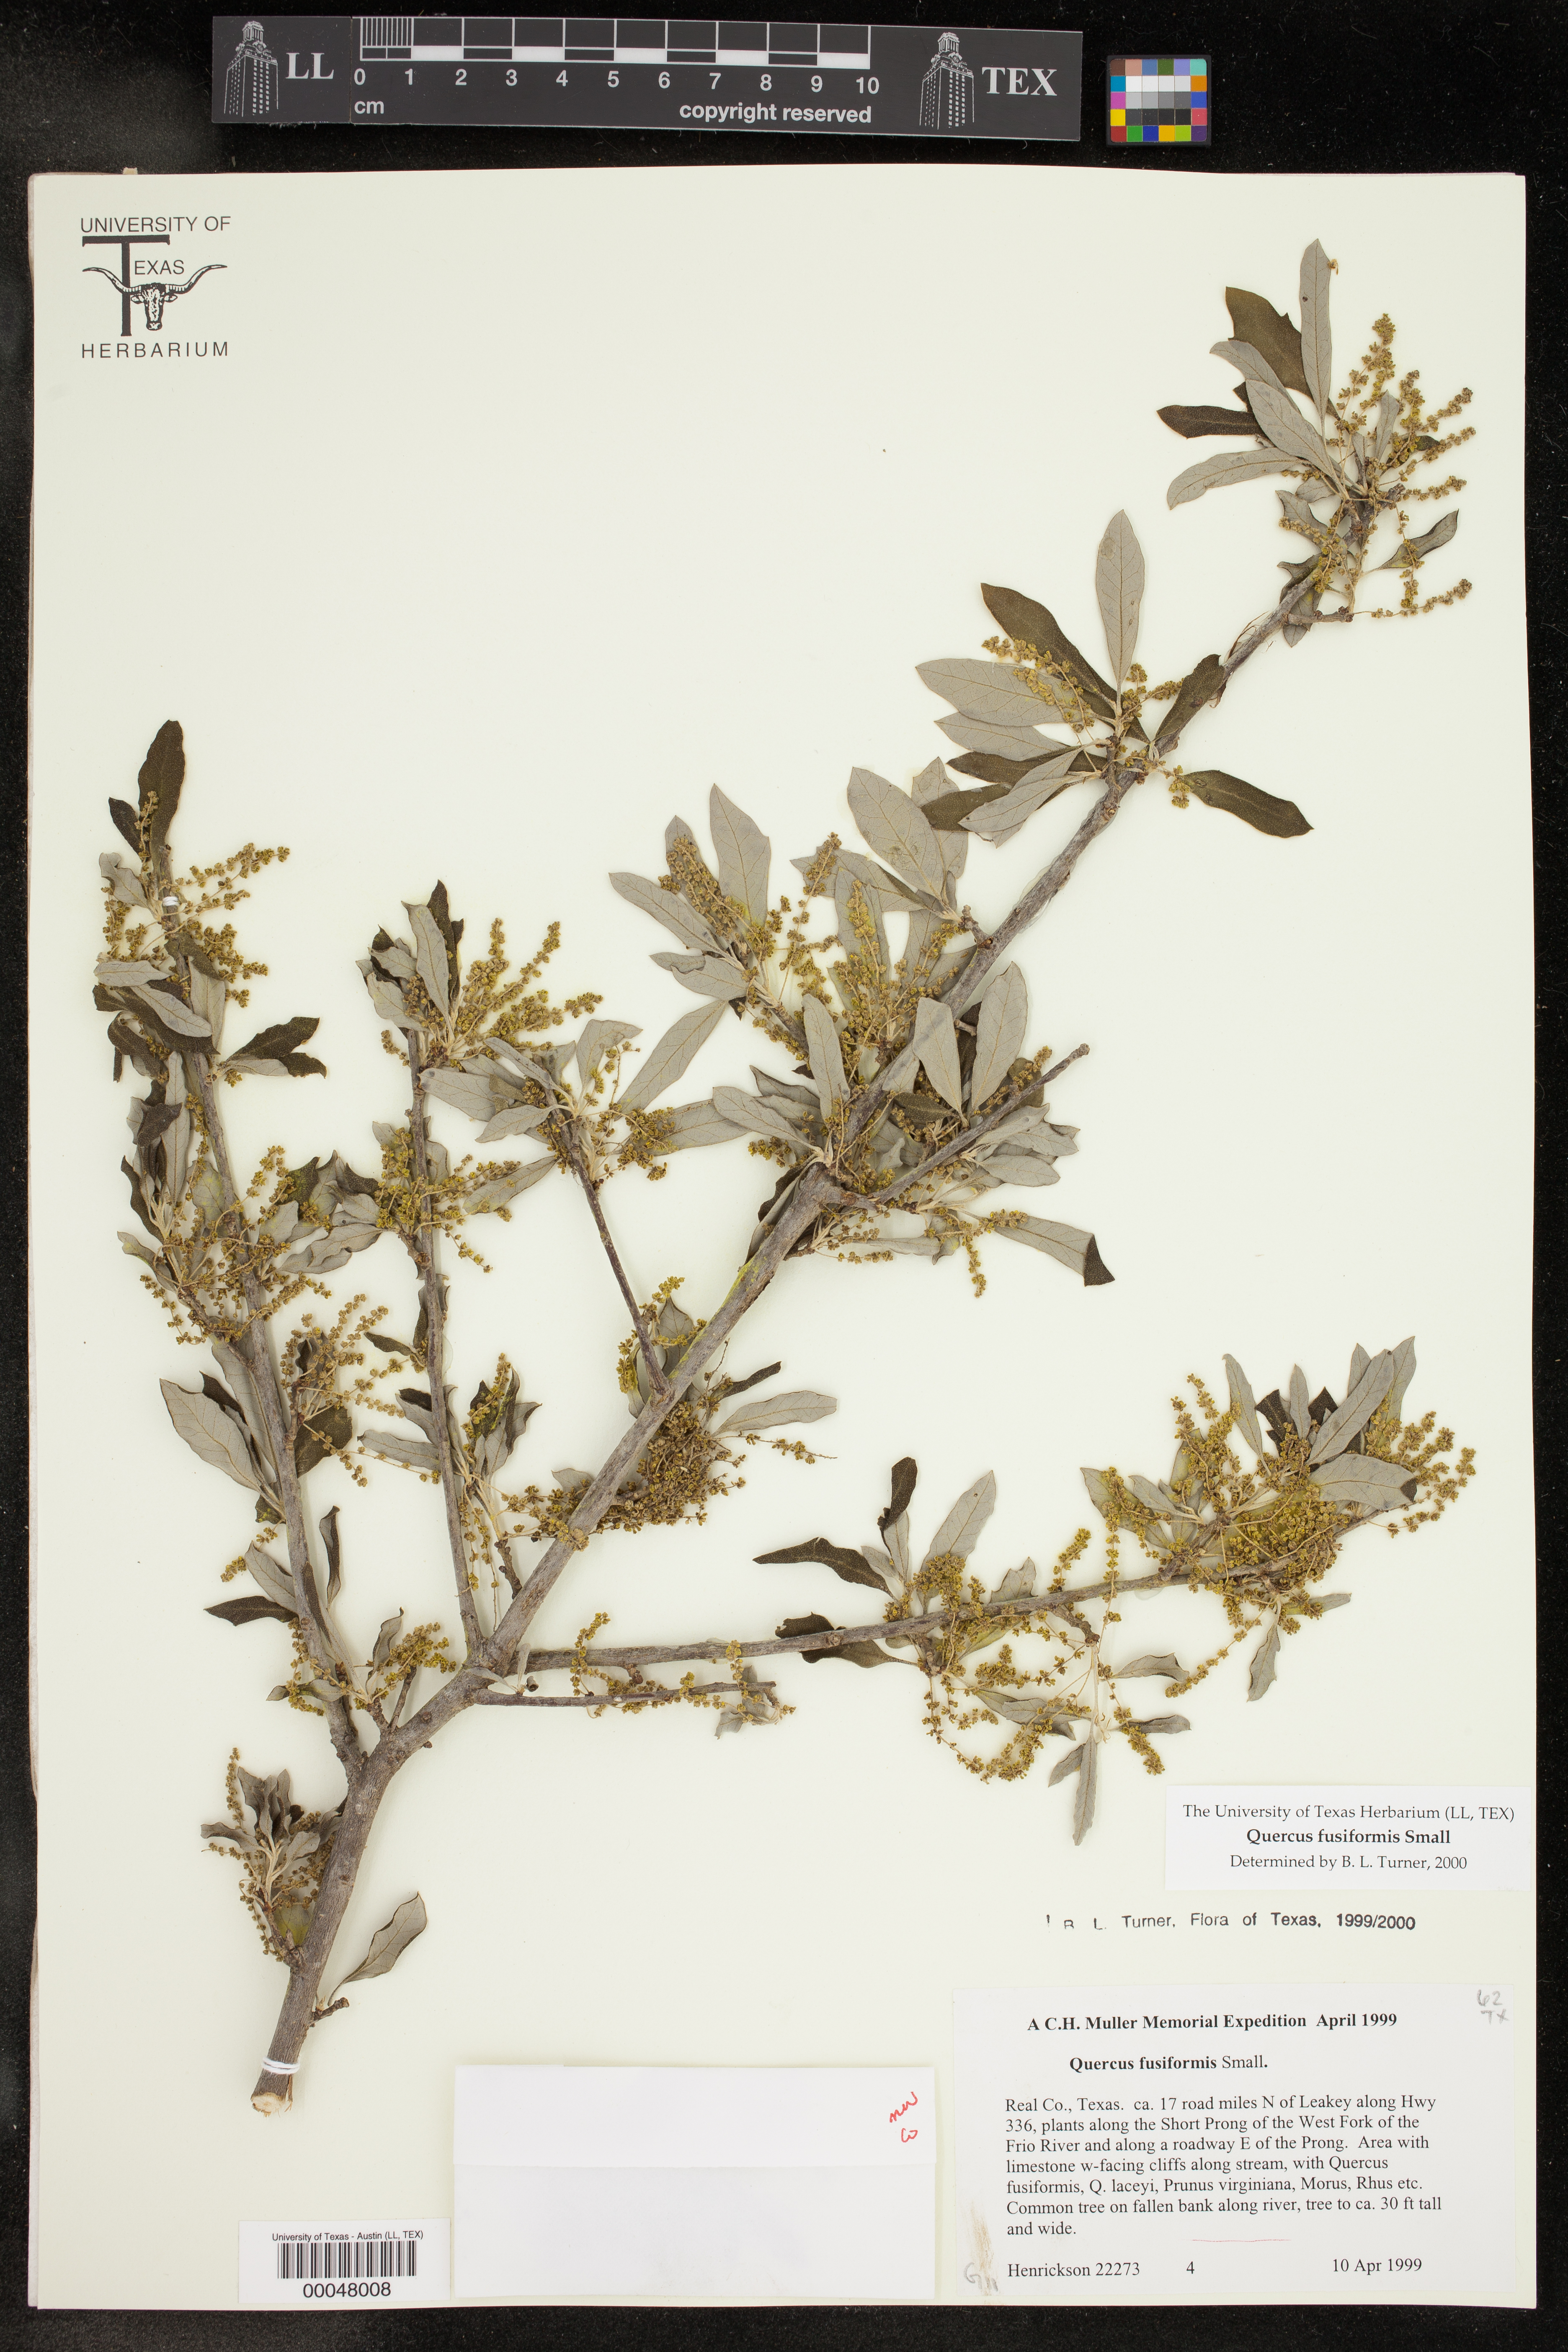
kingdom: Plantae
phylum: Tracheophyta
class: Magnoliopsida
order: Fagales
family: Fagaceae
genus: Quercus
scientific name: Quercus fusiformis
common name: Texas live oak
